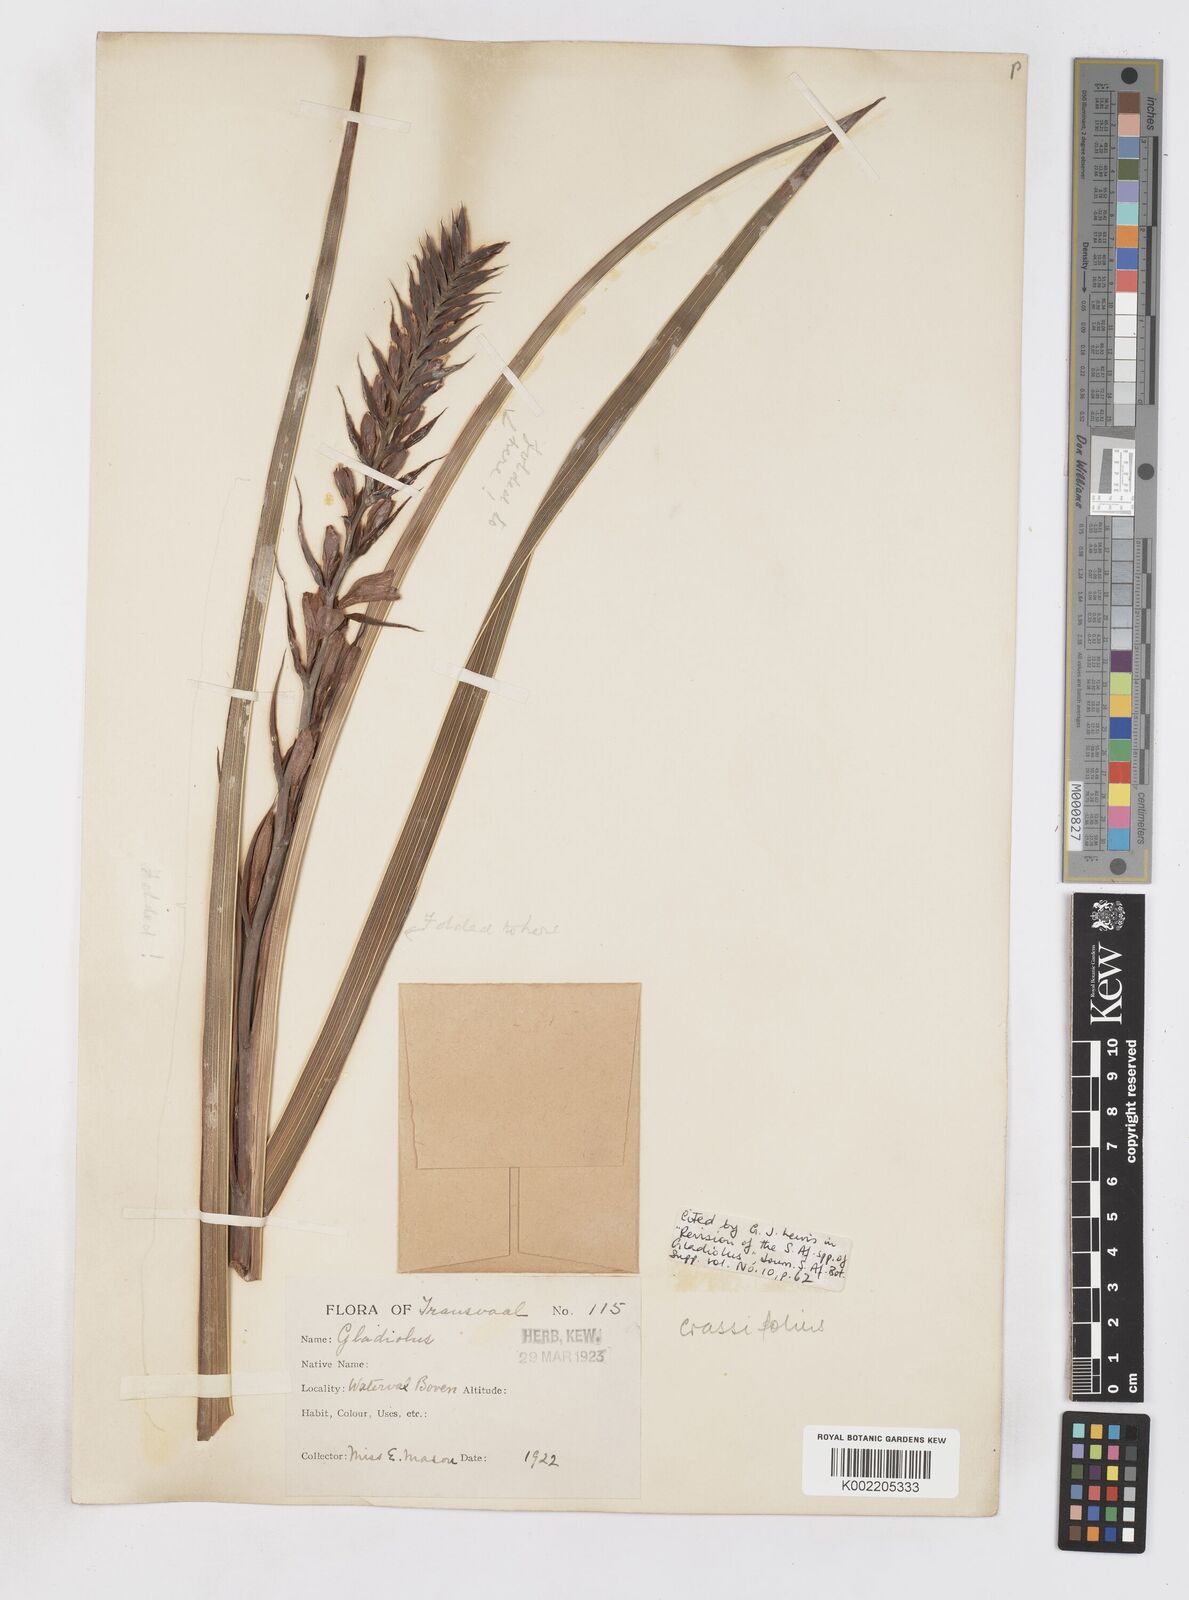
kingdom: Plantae
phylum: Tracheophyta
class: Liliopsida
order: Asparagales
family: Iridaceae
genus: Gladiolus
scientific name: Gladiolus crassifolius
